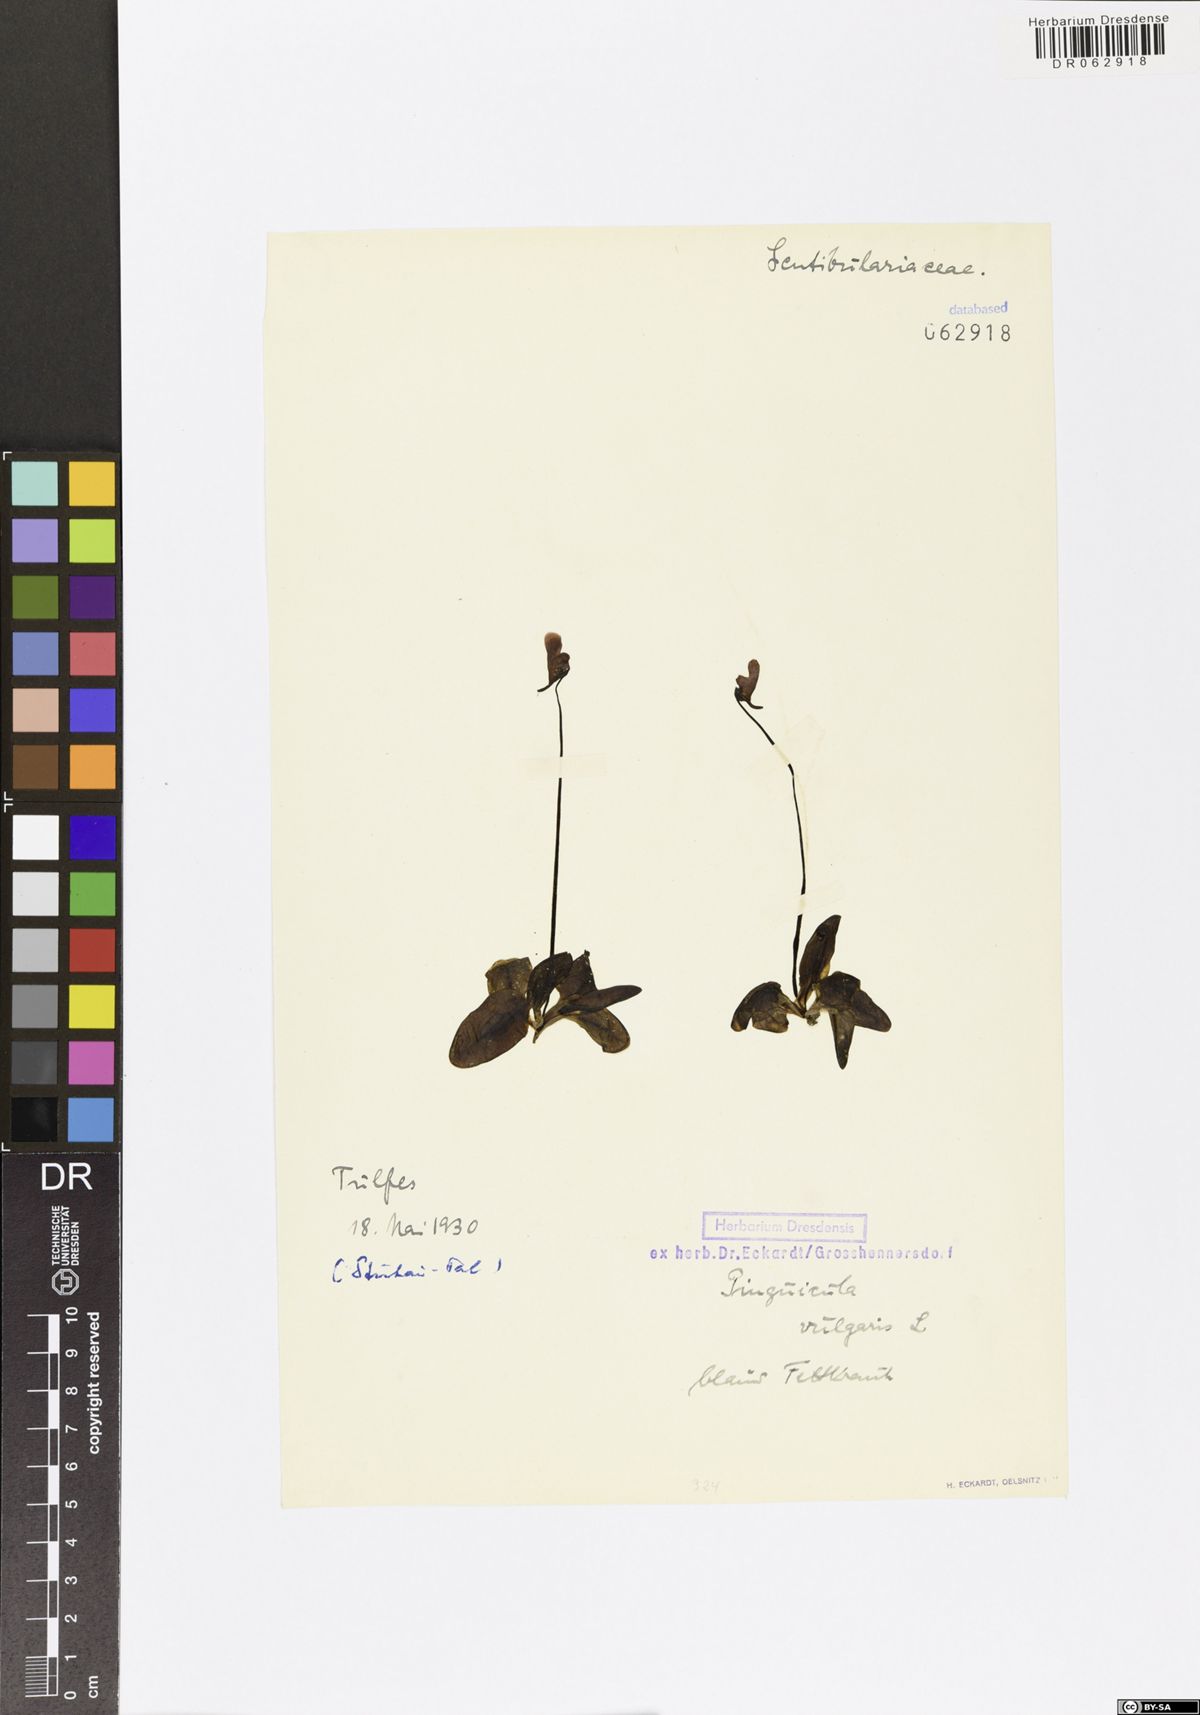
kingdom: Plantae
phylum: Tracheophyta
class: Magnoliopsida
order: Lamiales
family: Lentibulariaceae
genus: Pinguicula
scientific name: Pinguicula vulgaris
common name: Common butterwort
